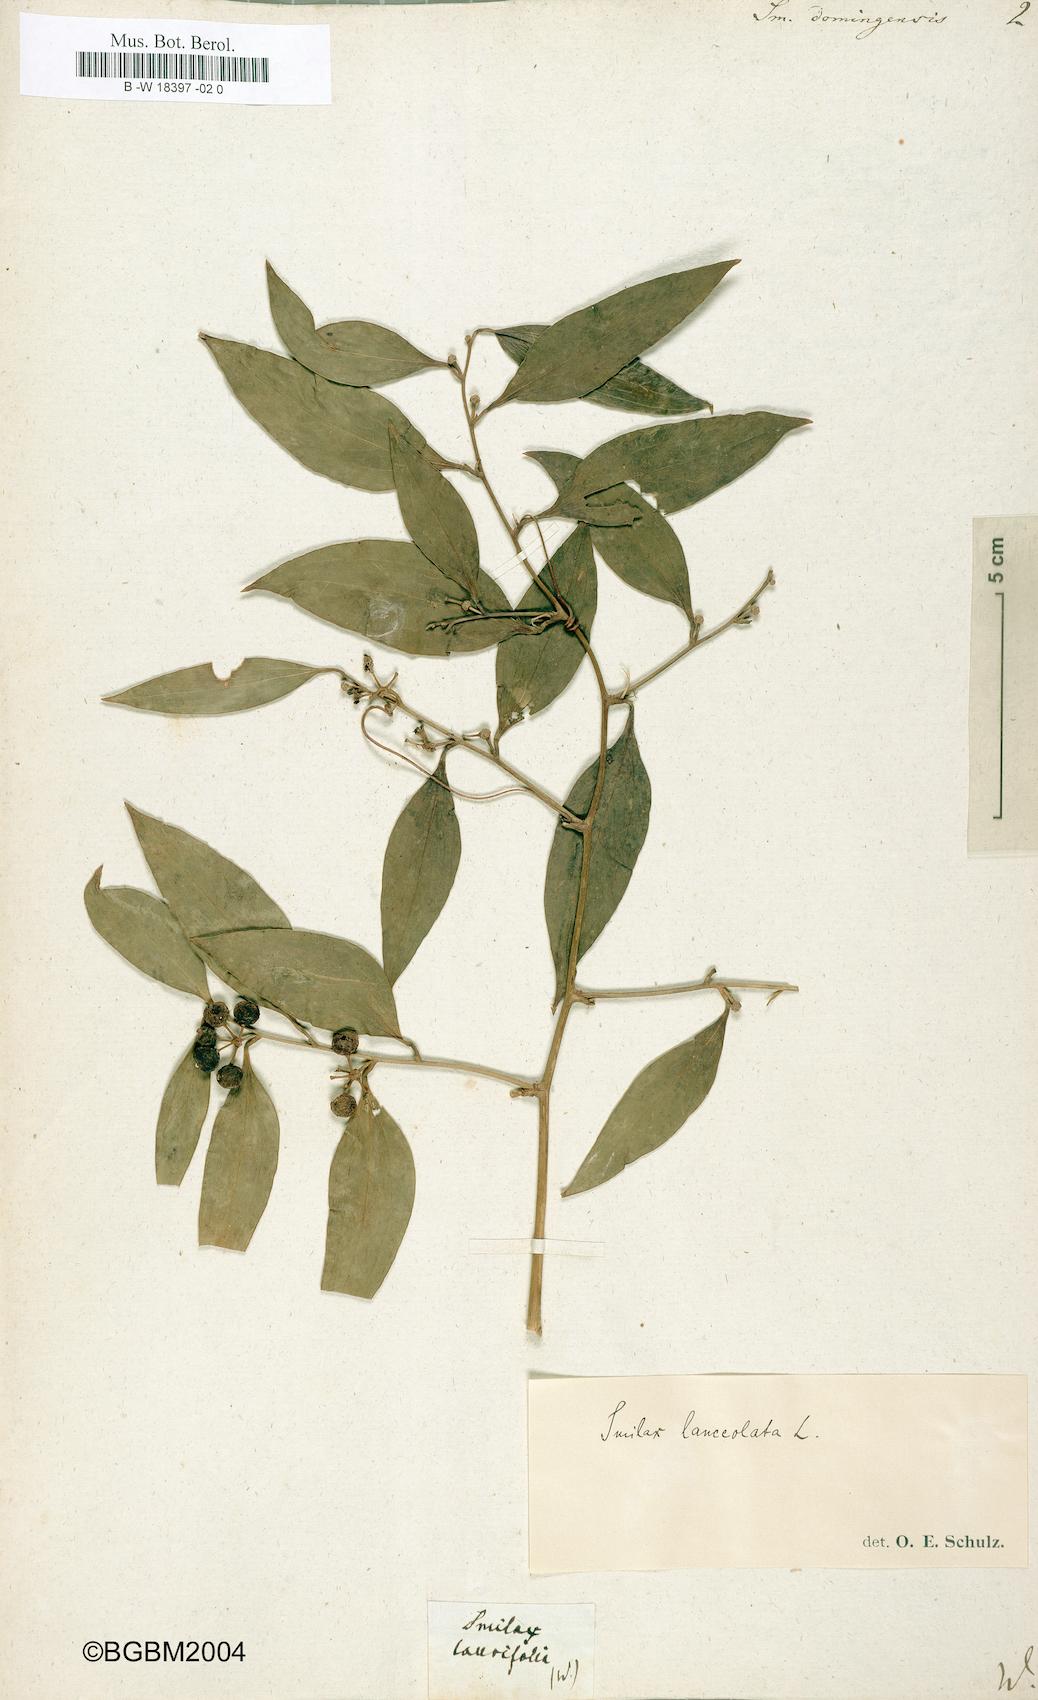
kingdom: Plantae
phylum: Tracheophyta
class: Liliopsida
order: Liliales
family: Smilacaceae
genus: Smilax
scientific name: Smilax domingensis
